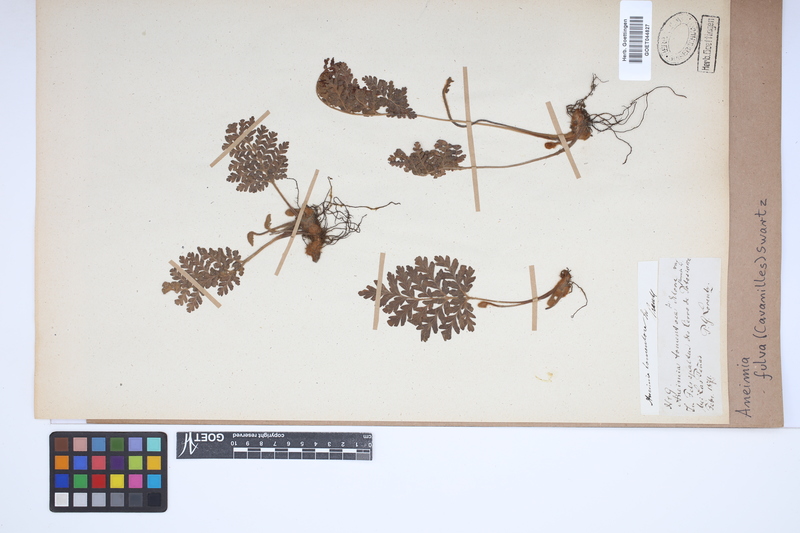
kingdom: Plantae
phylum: Tracheophyta
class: Polypodiopsida
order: Schizaeales
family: Anemiaceae
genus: Anemia
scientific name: Anemia ferruginea
